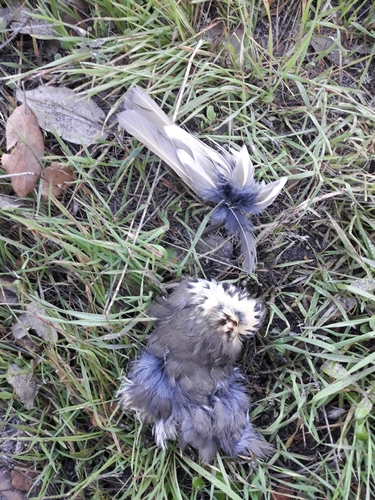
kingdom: Animalia
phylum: Chordata
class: Aves
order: Passeriformes
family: Turdidae
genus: Turdus
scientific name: Turdus philomelos
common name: Song thrush
